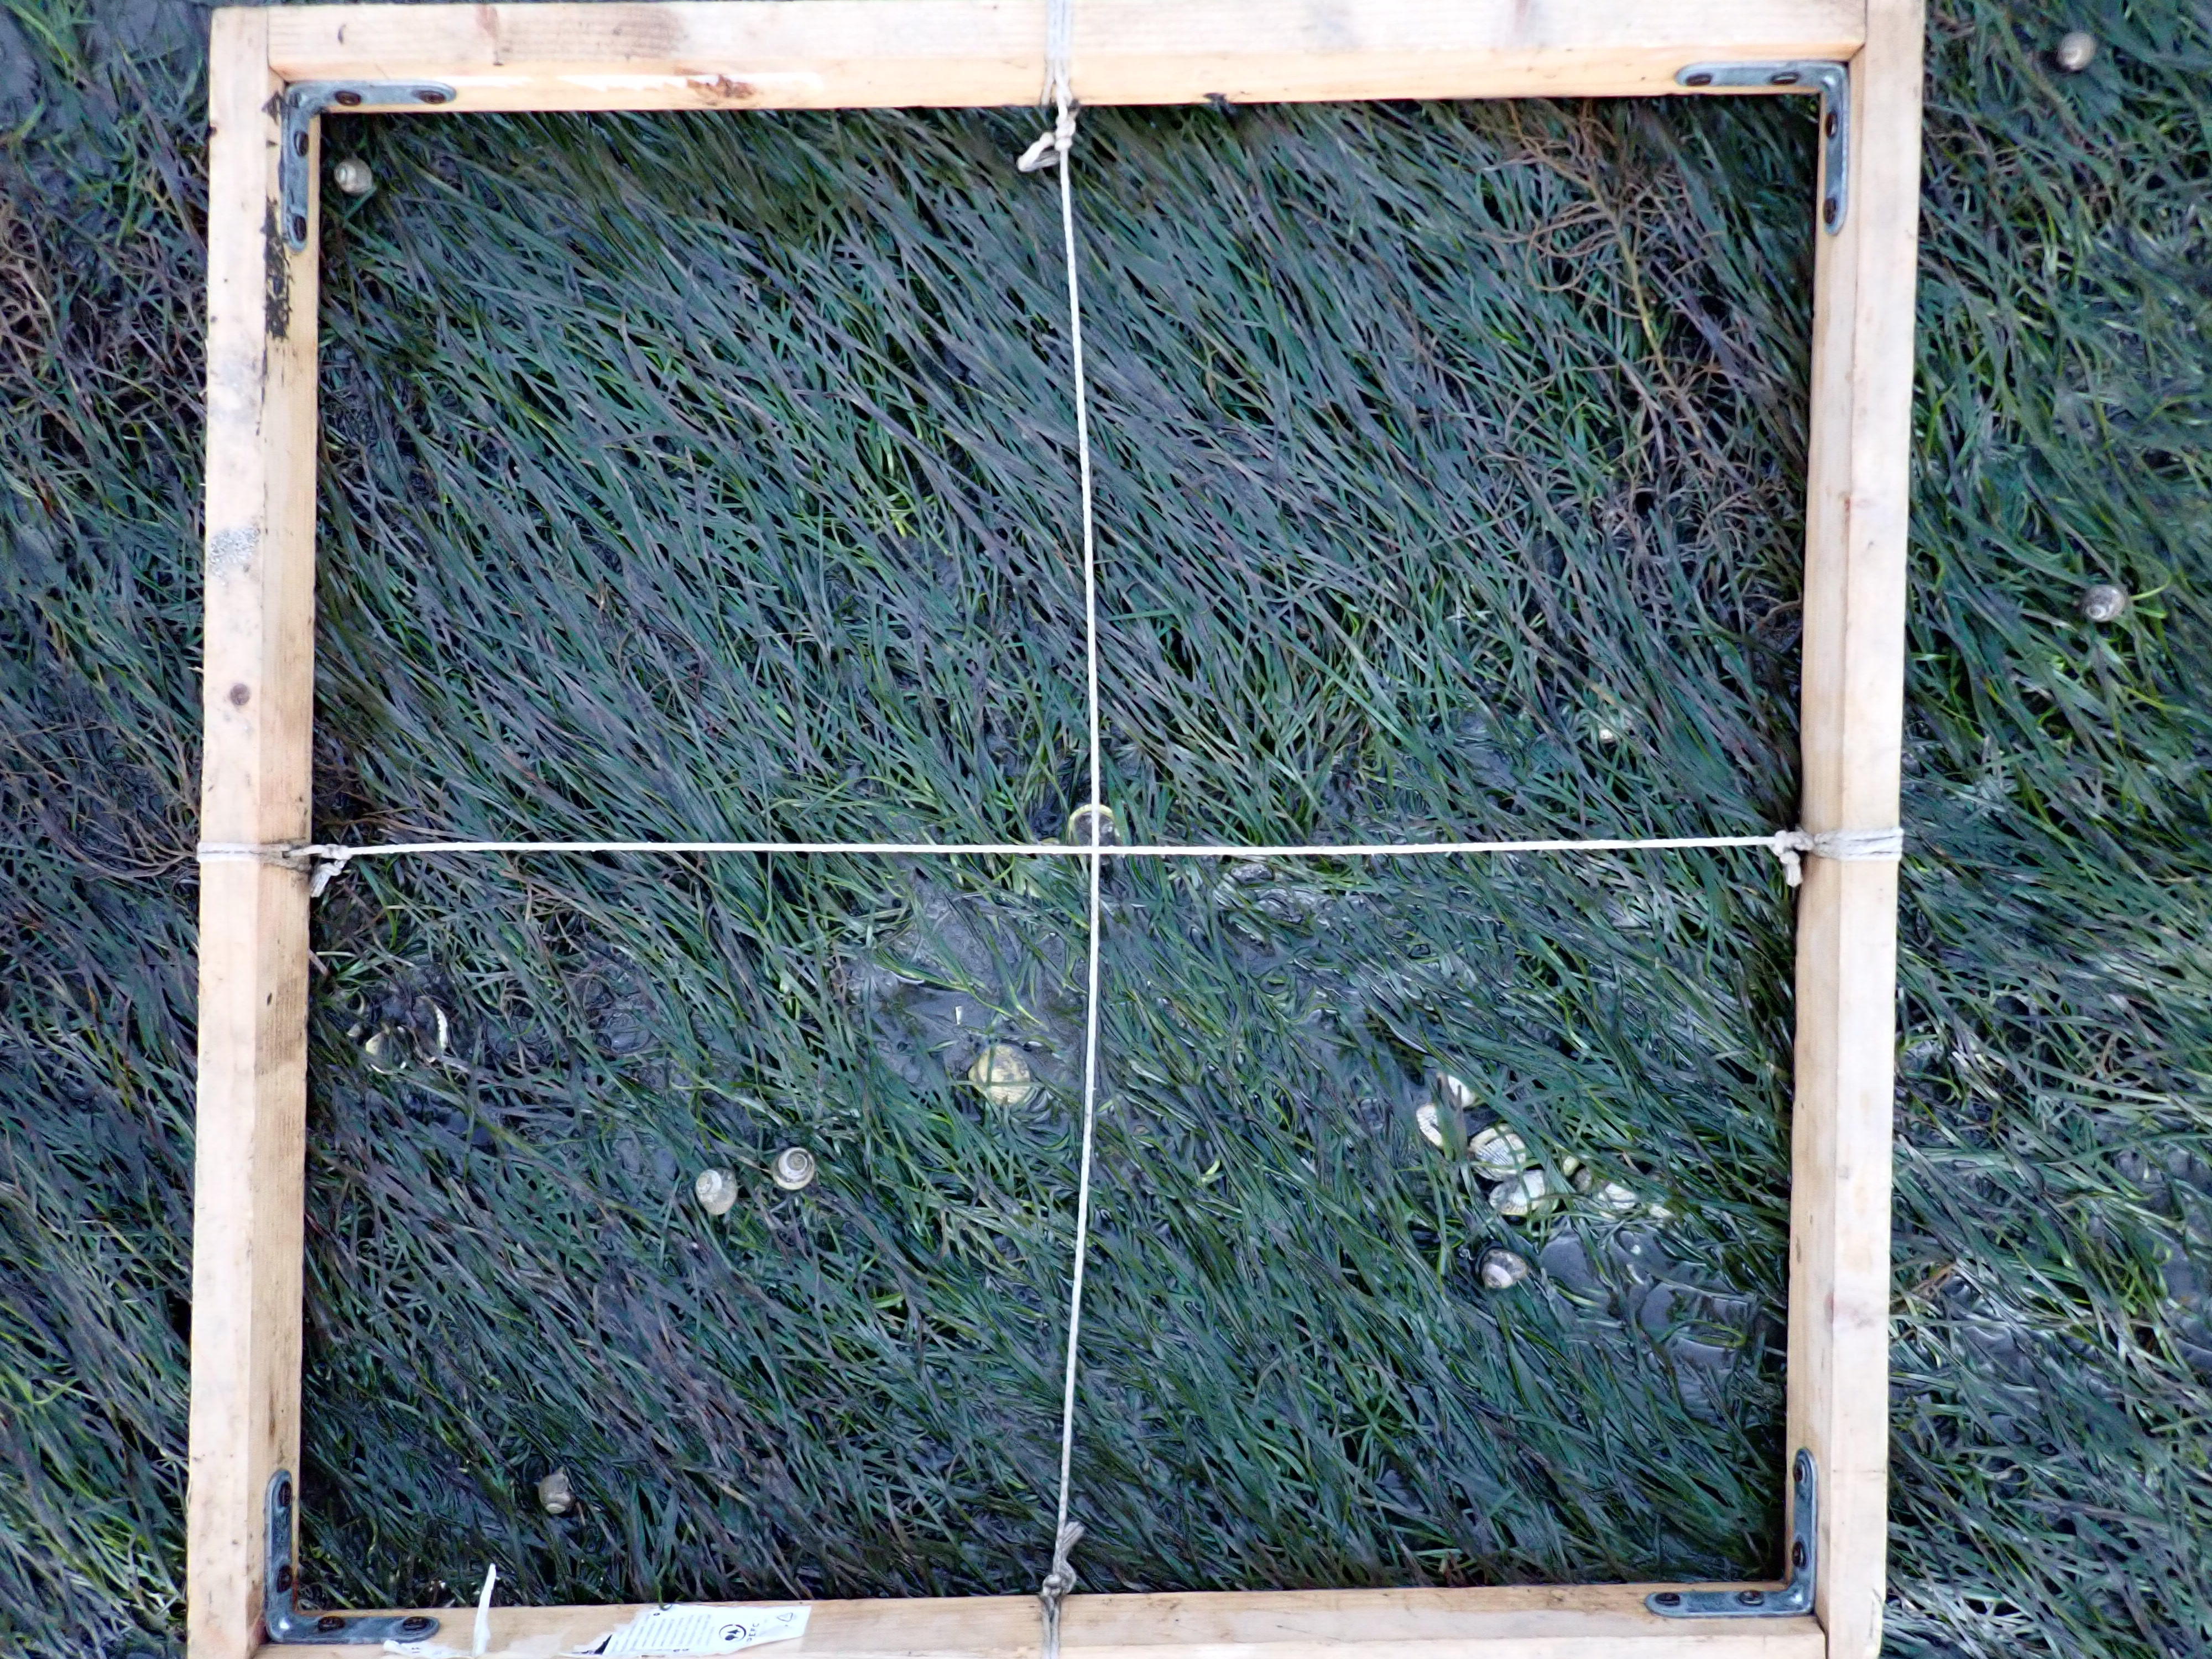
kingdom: Plantae
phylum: Tracheophyta
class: Liliopsida
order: Alismatales
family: Zosteraceae
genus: Zostera
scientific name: Zostera noltii
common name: Dwarf eelgrass
